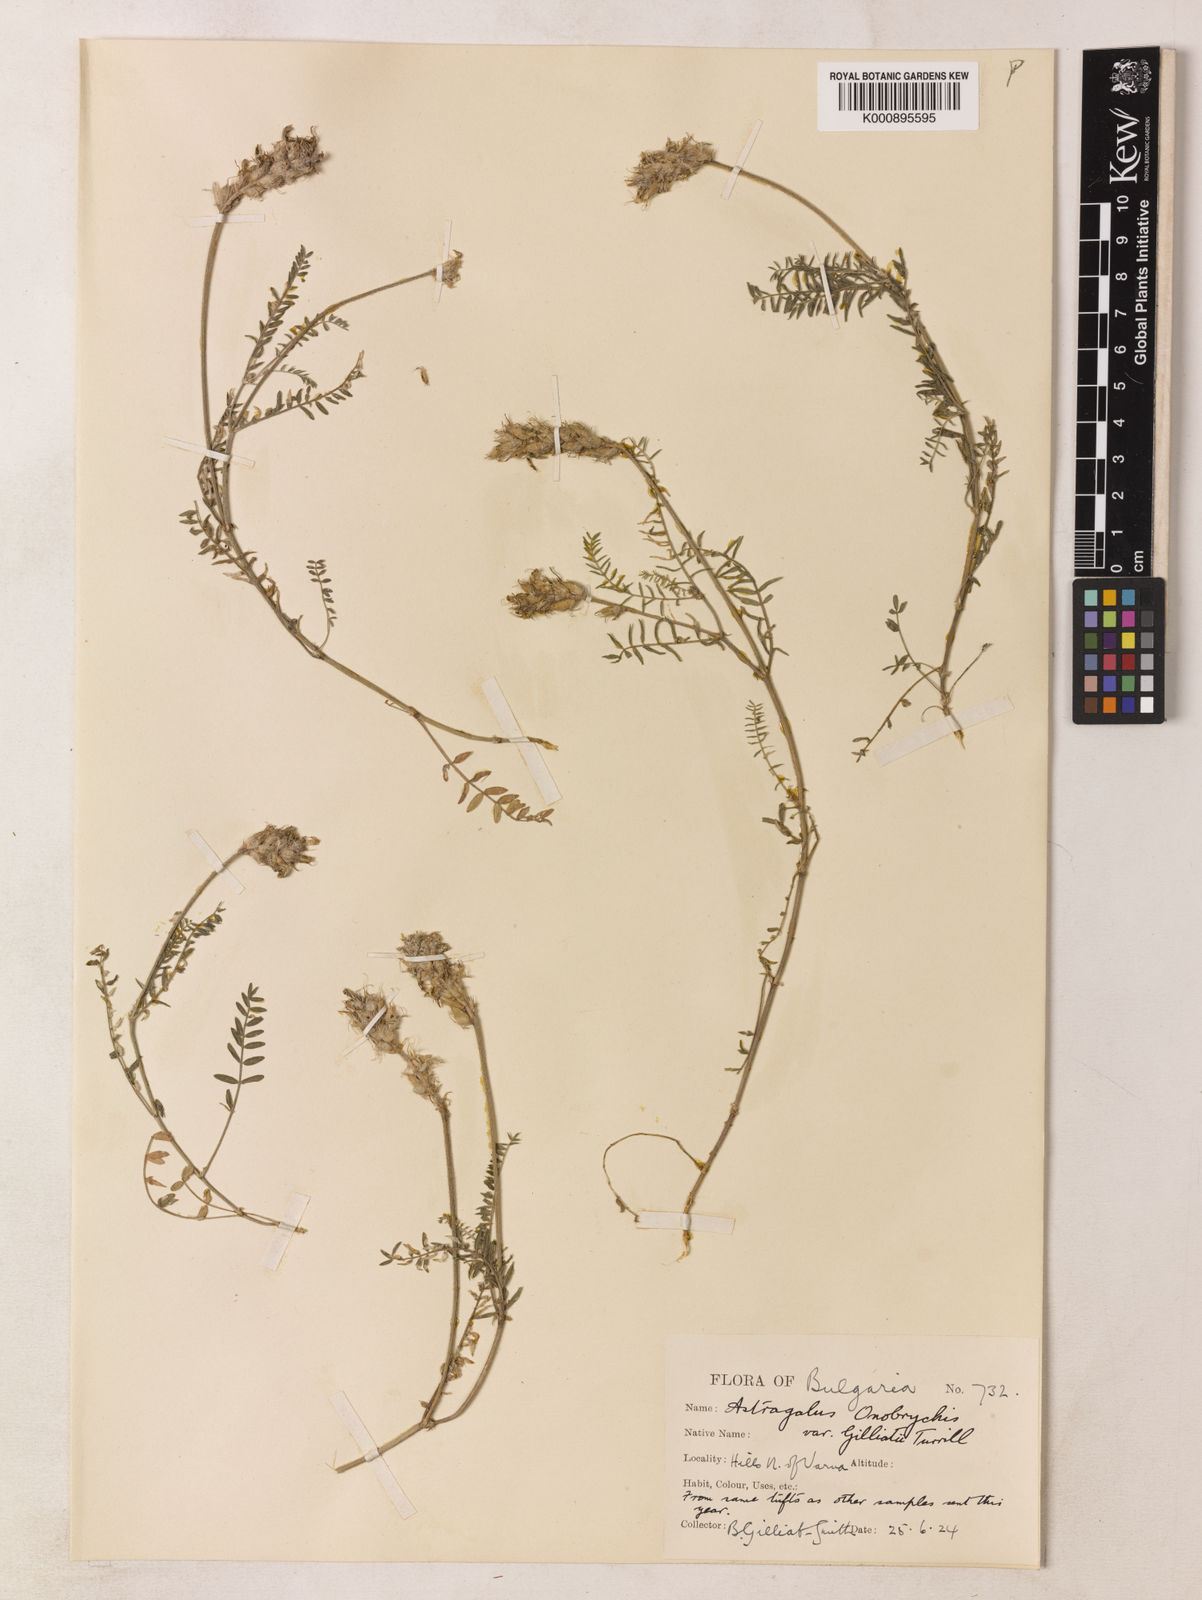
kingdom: Plantae
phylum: Tracheophyta
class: Magnoliopsida
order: Fabales
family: Fabaceae
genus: Astragalus
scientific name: Astragalus
